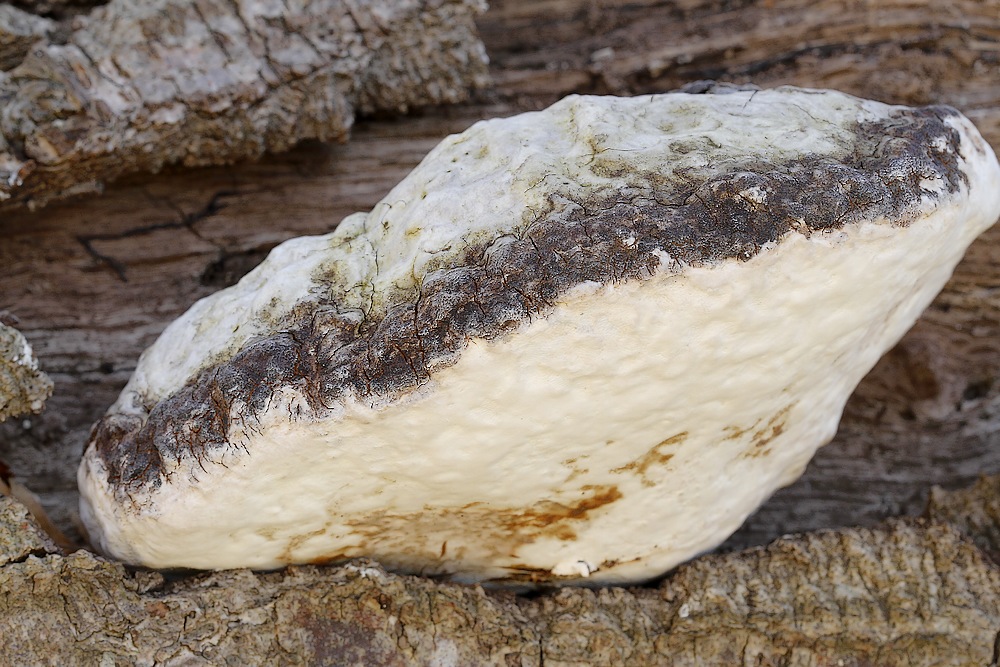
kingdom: Fungi
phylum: Basidiomycota
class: Agaricomycetes
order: Polyporales
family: Polyporaceae
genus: Fomes
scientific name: Fomes fomentarius
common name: tøndersvamp
